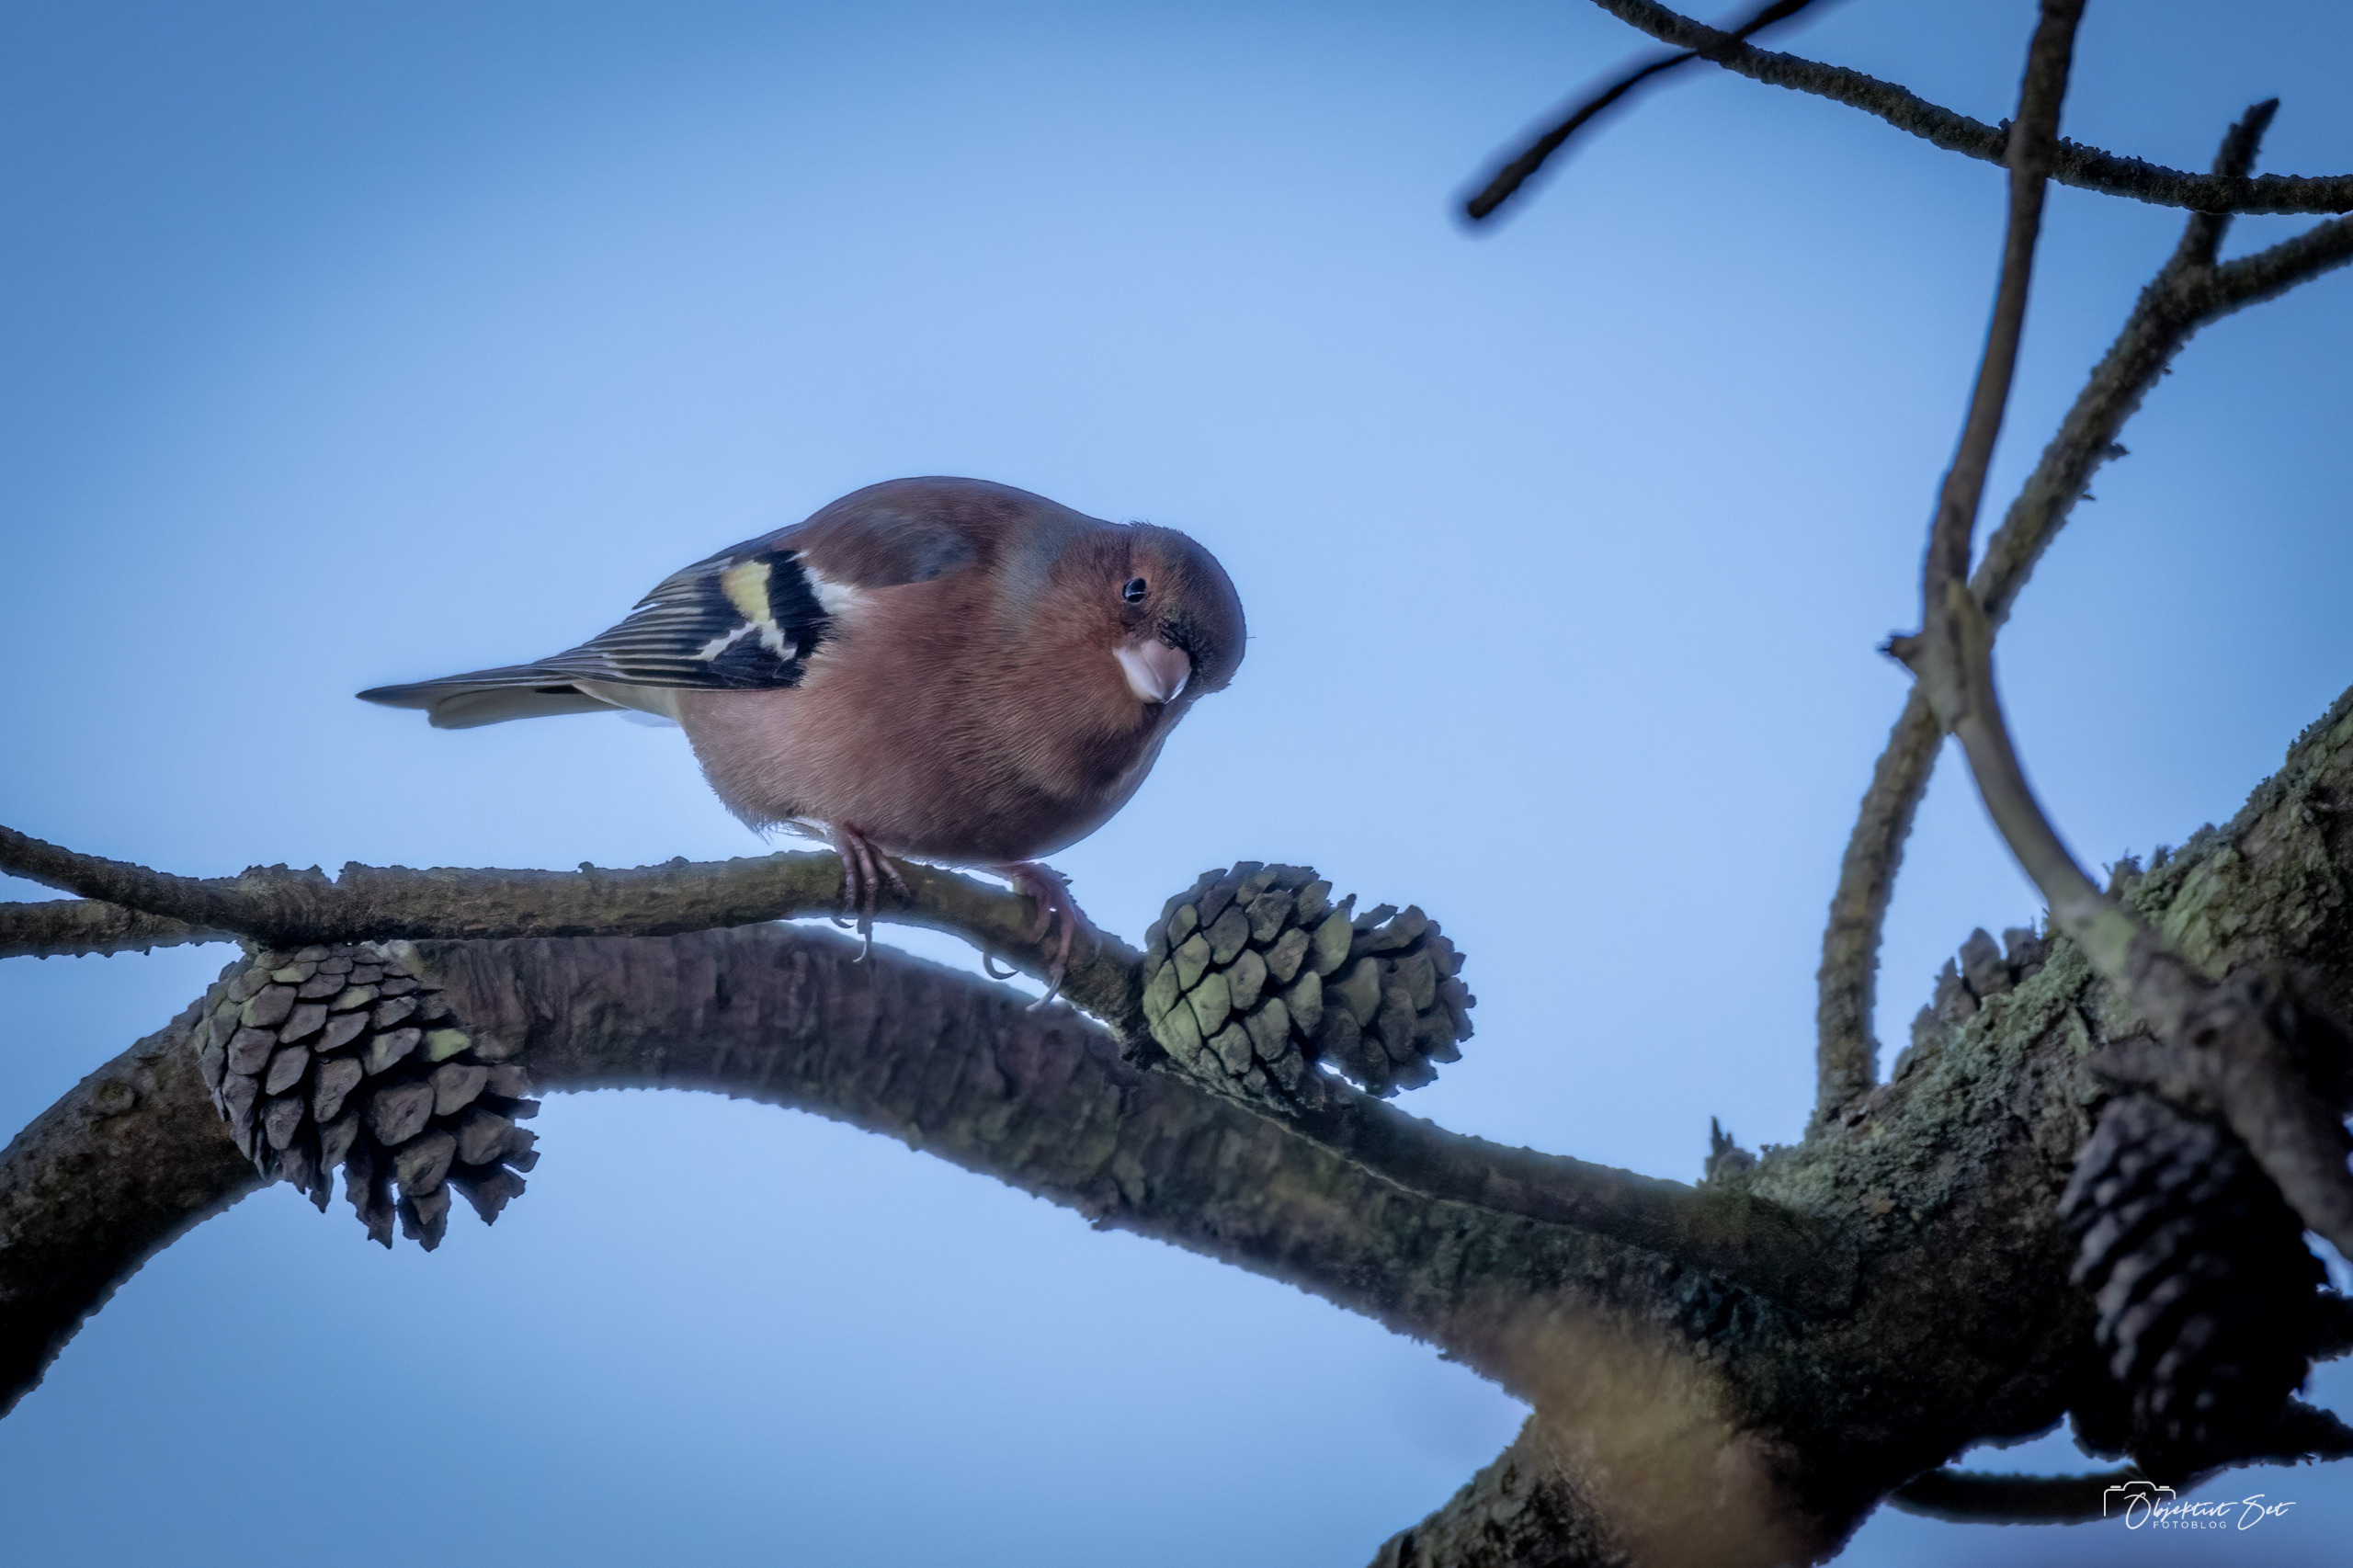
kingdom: Animalia
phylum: Chordata
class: Aves
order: Passeriformes
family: Fringillidae
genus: Fringilla
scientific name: Fringilla coelebs
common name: Bogfinke
